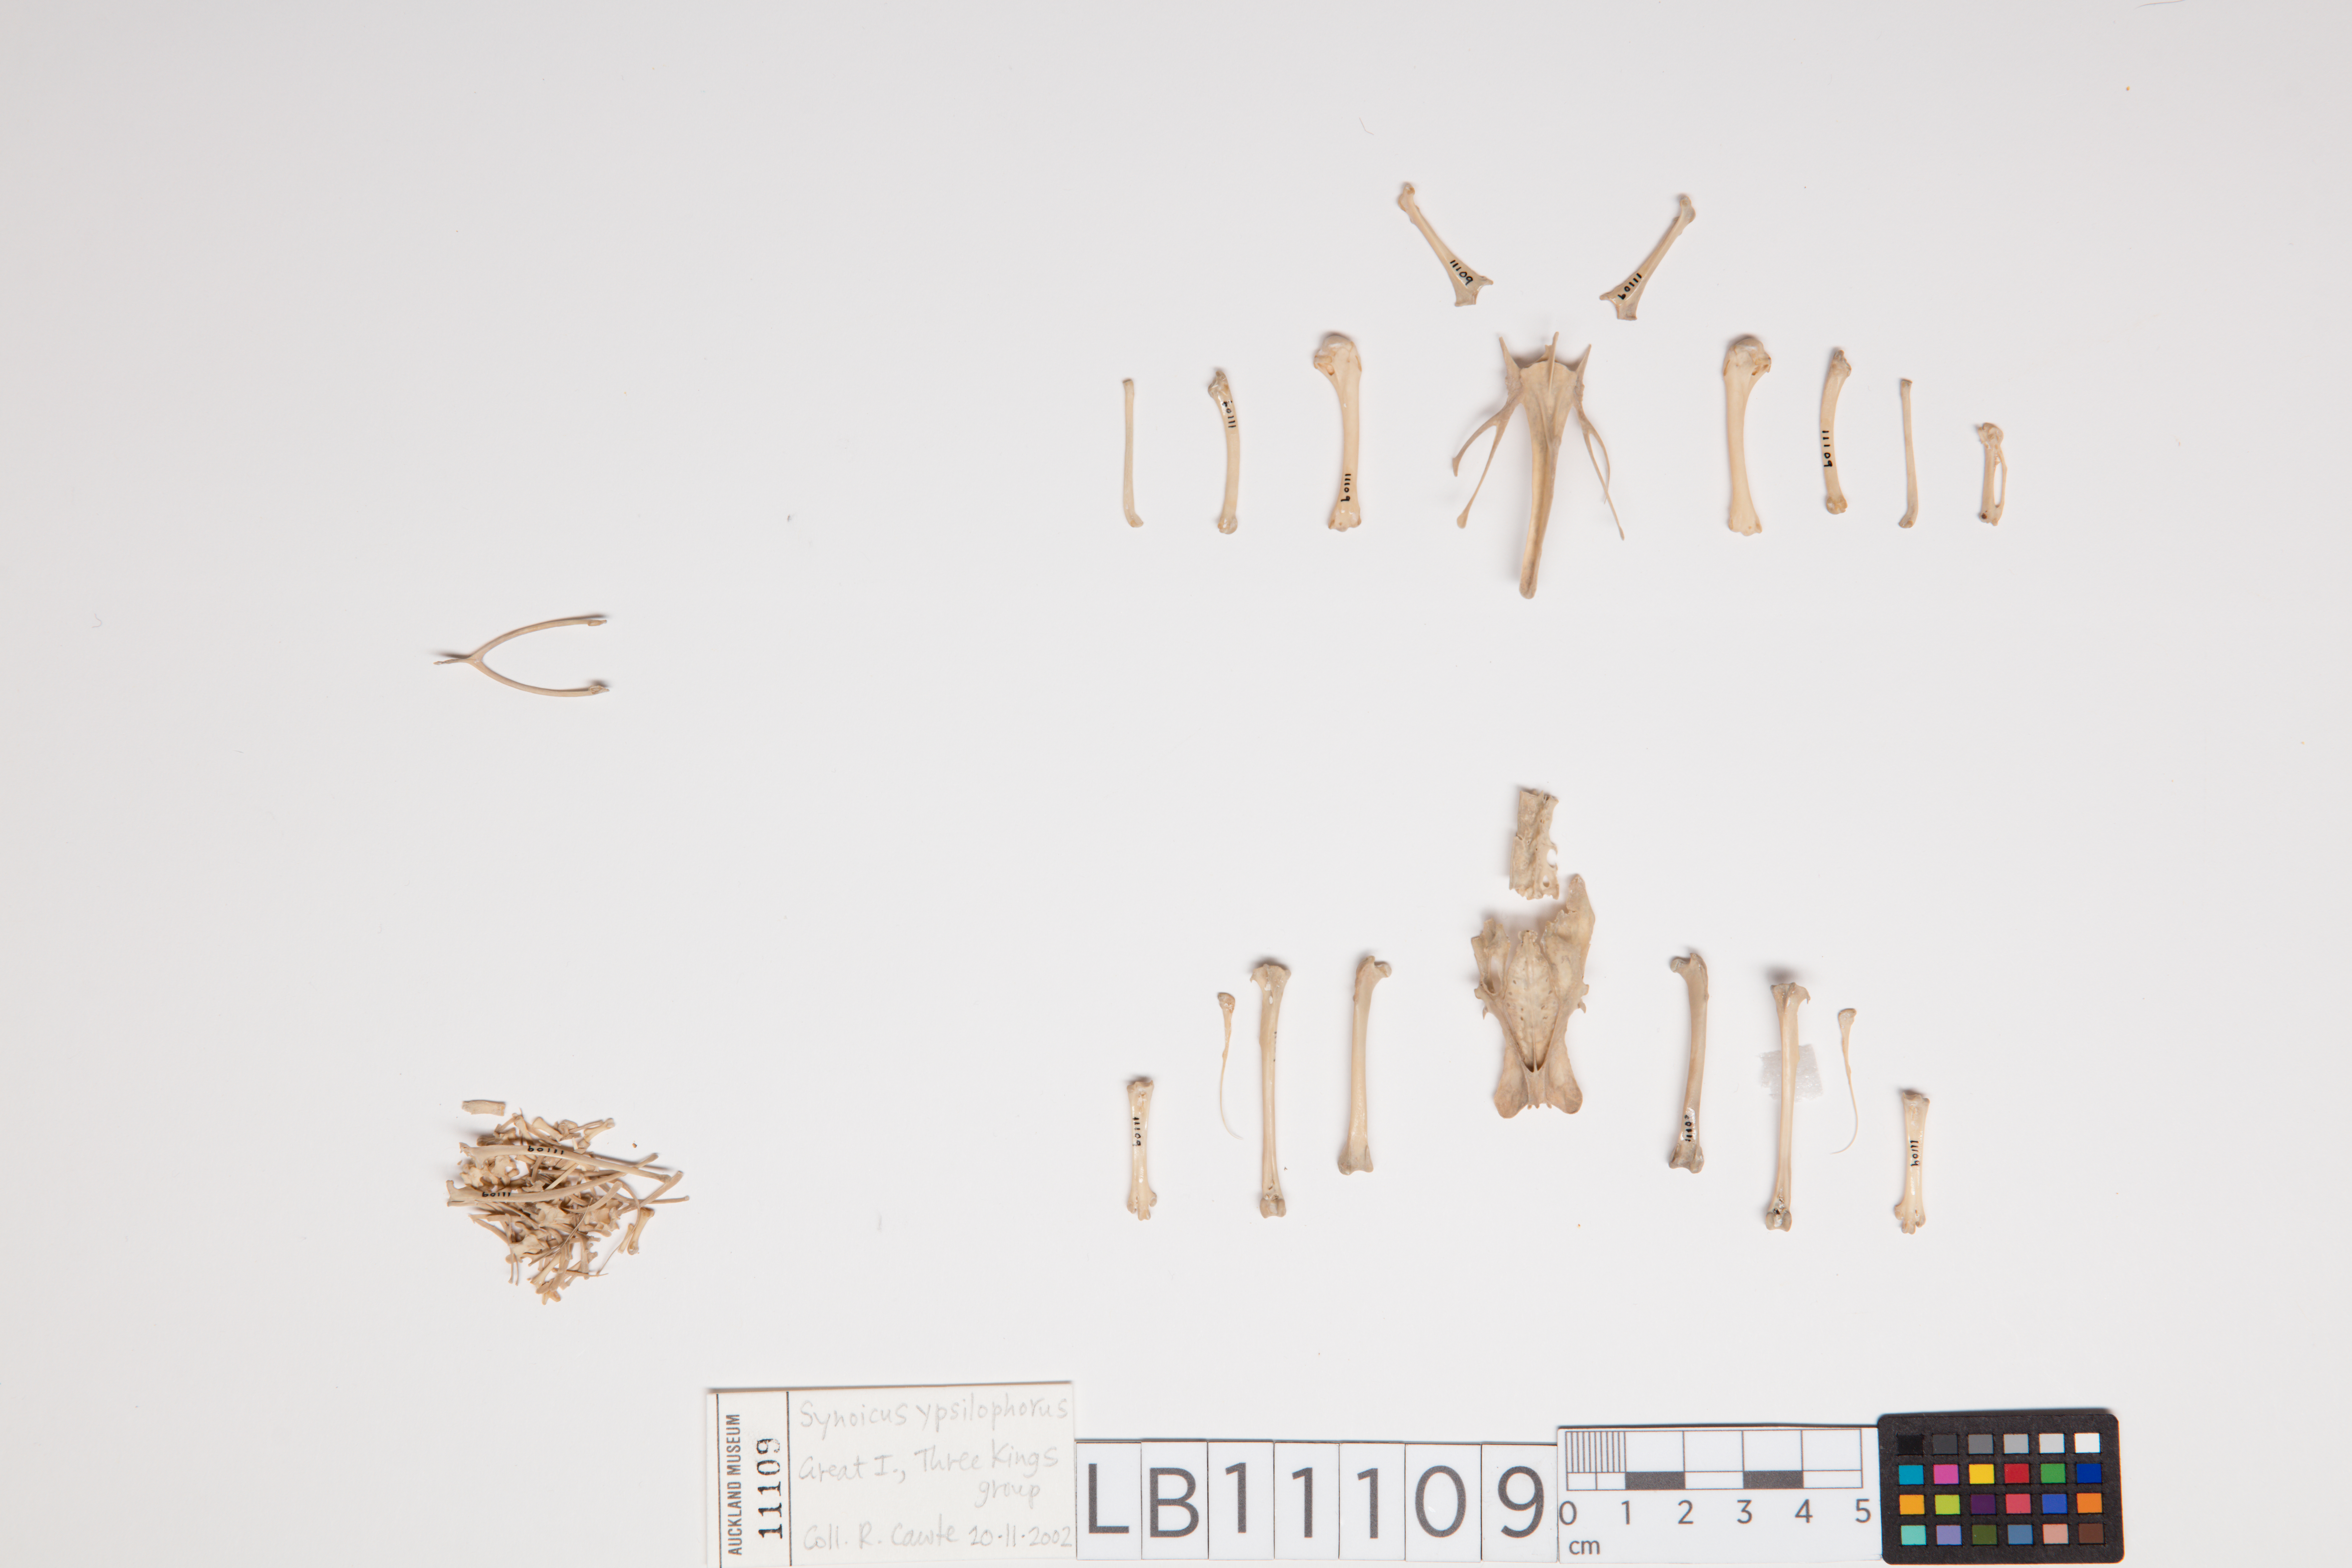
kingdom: Animalia
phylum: Chordata
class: Aves
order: Galliformes
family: Phasianidae
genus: Synoicus
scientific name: Synoicus ypsilophorus
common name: Brown quail
